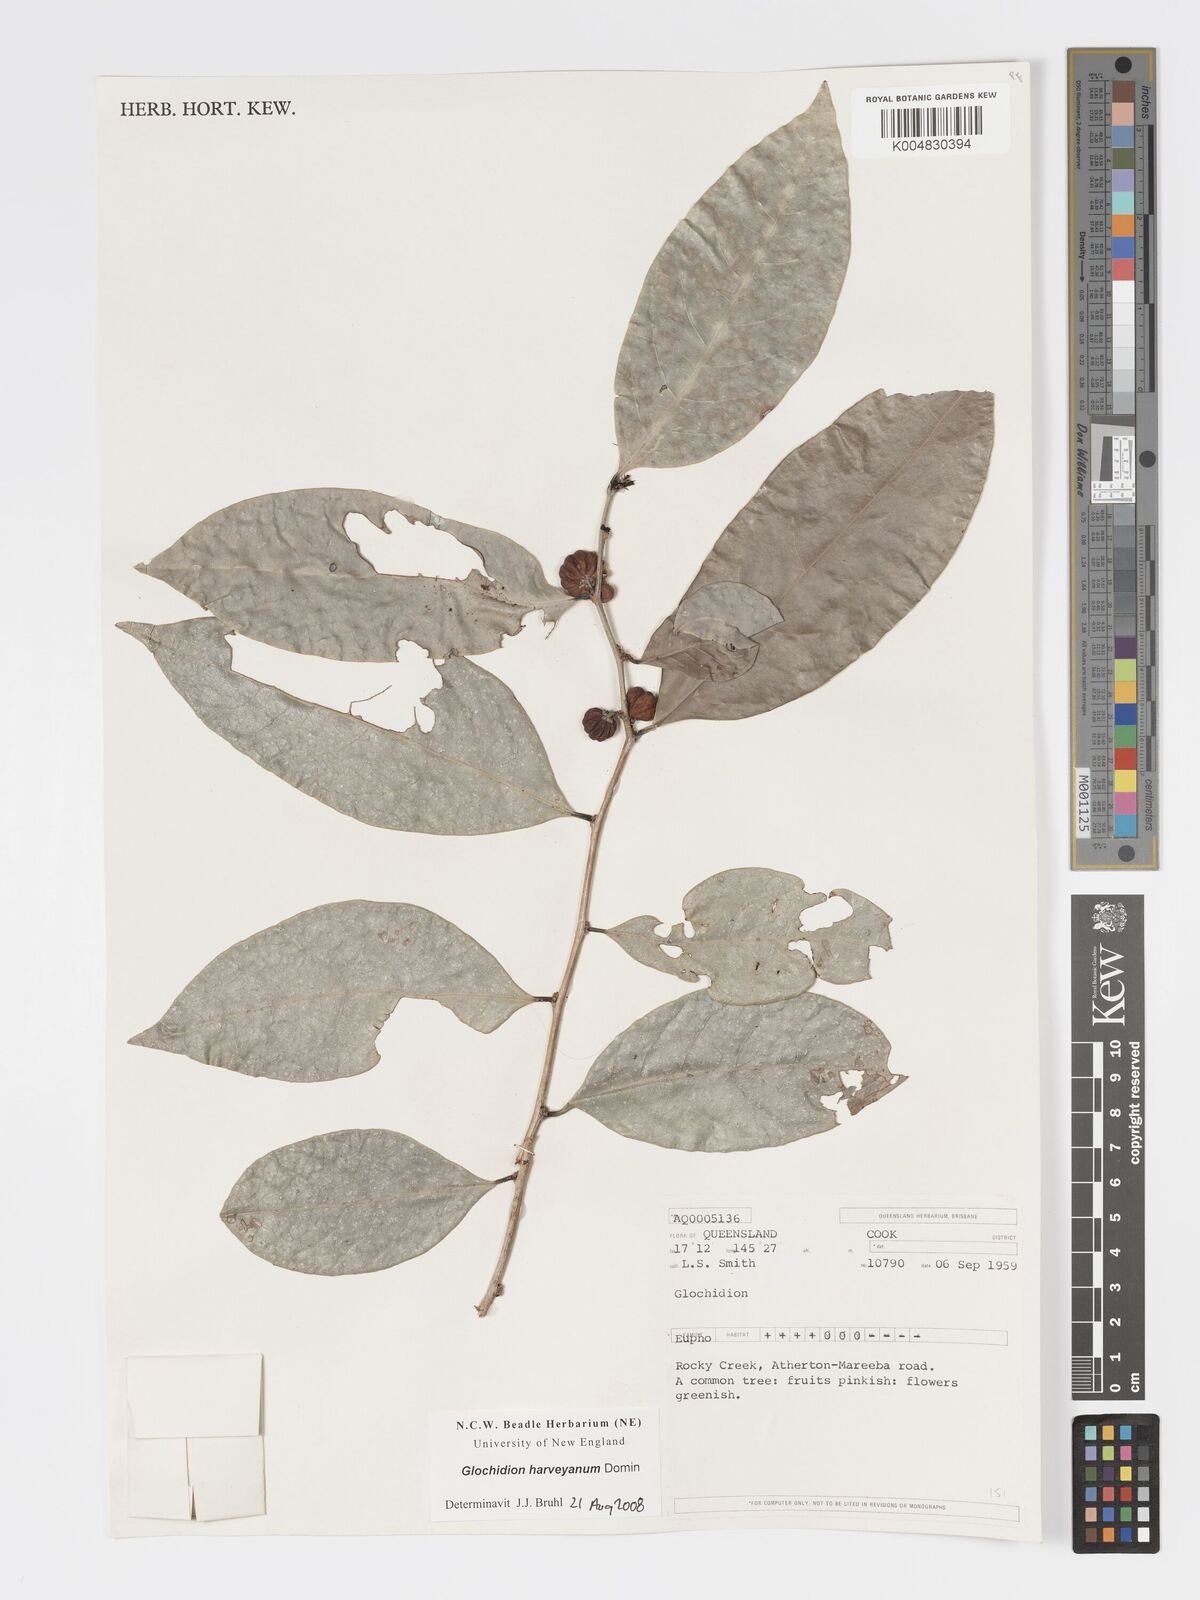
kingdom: Plantae
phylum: Tracheophyta
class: Magnoliopsida
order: Malpighiales
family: Phyllanthaceae
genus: Glochidion
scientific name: Glochidion harveyanum
